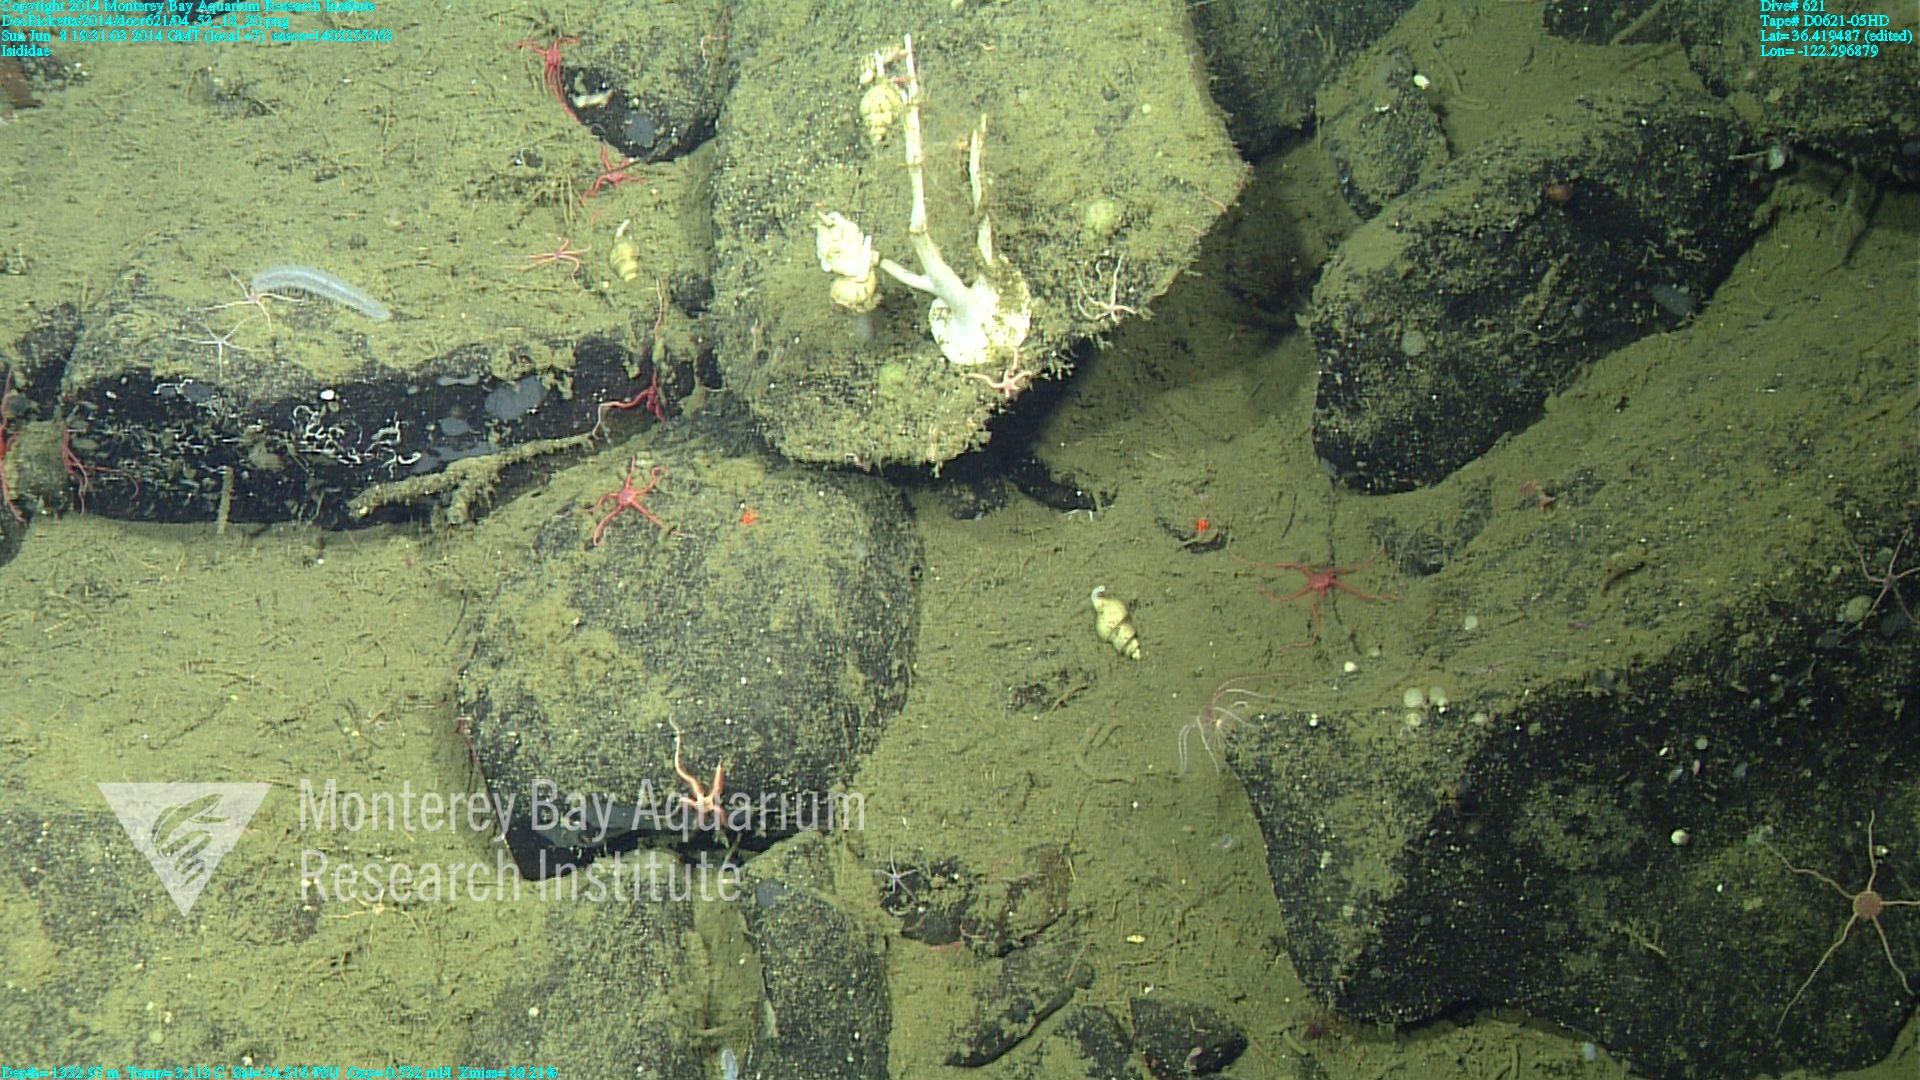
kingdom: Animalia
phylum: Cnidaria
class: Anthozoa
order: Scleralcyonacea
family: Keratoisididae
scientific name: Keratoisididae
